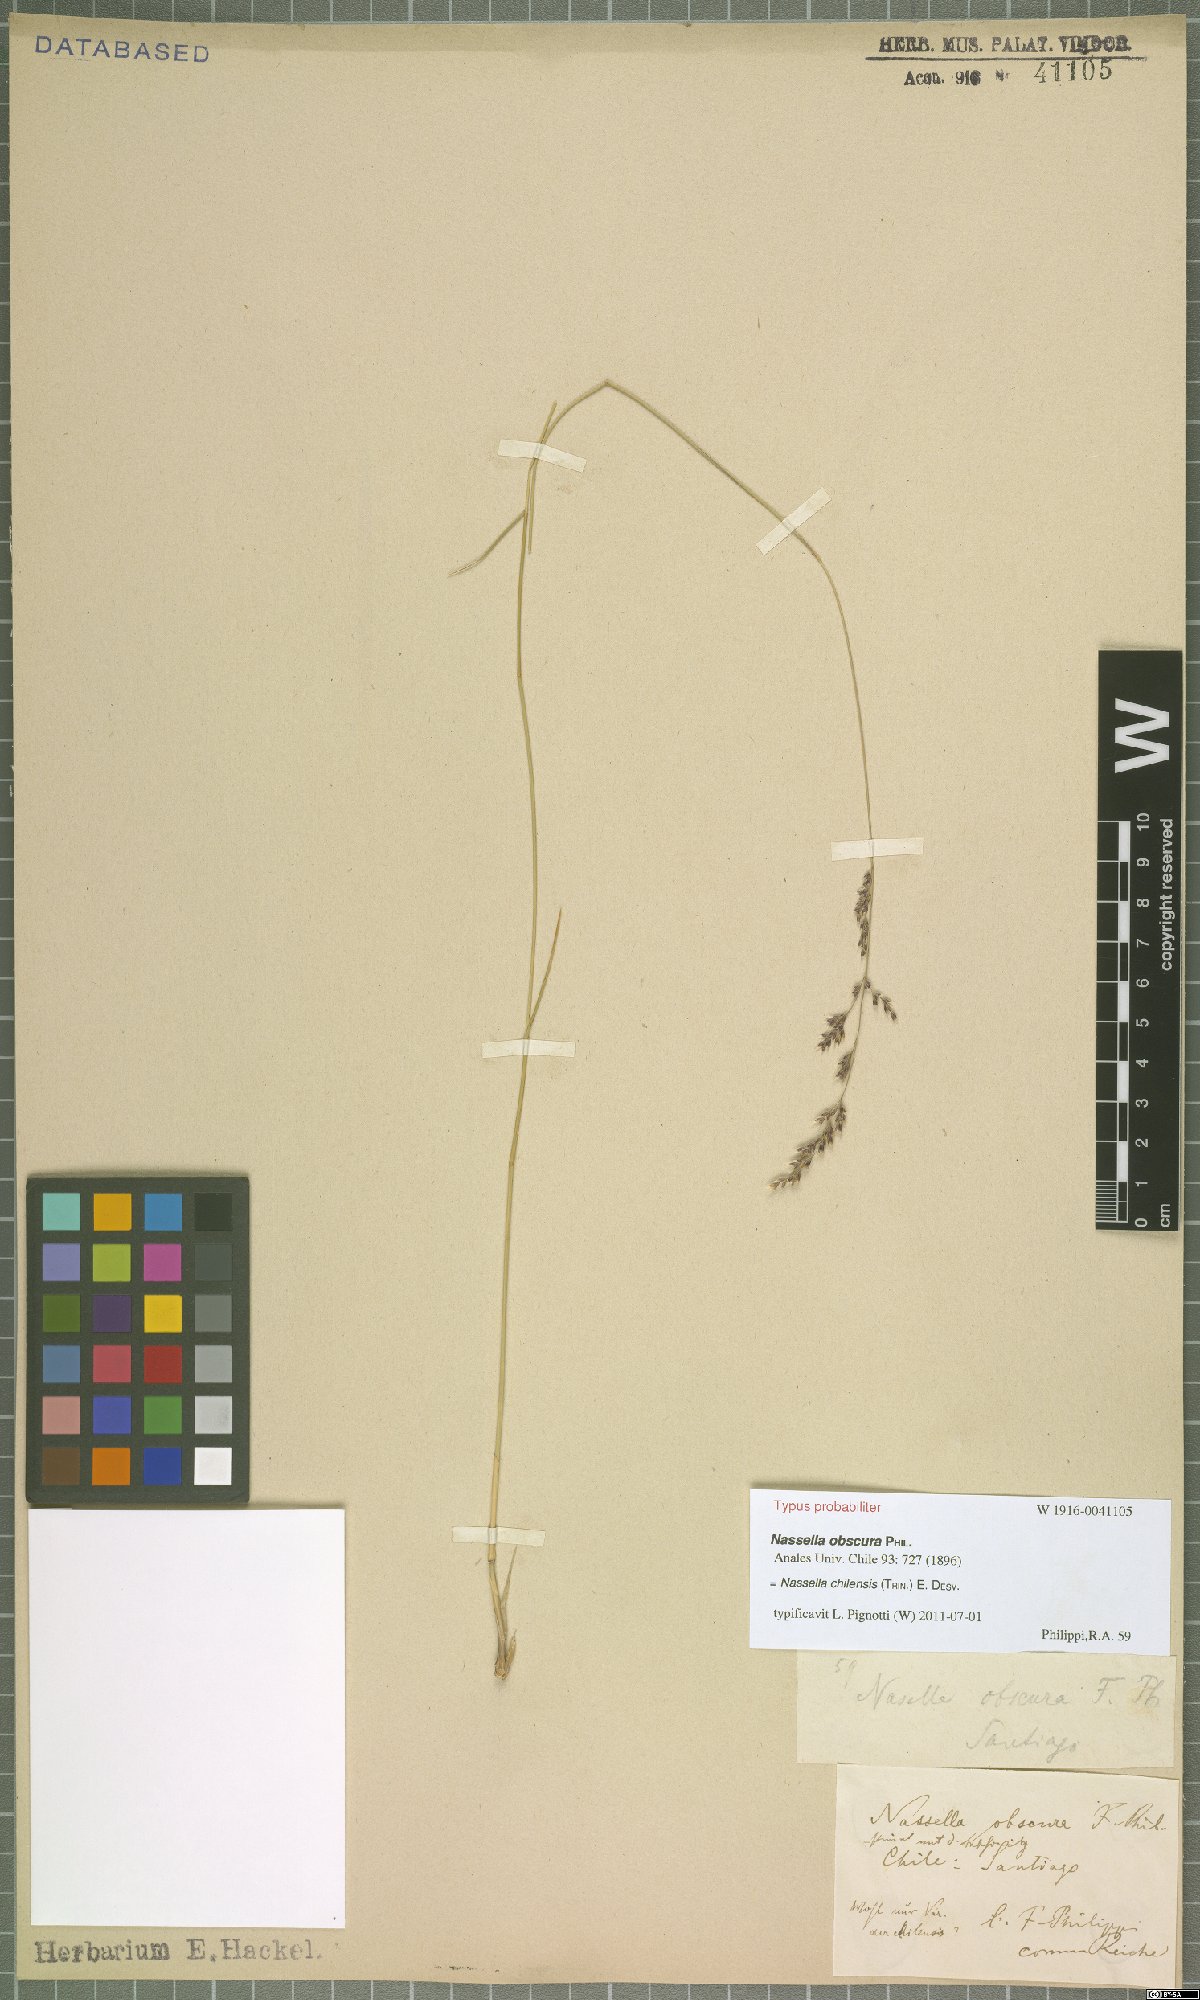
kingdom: Plantae
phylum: Tracheophyta
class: Liliopsida
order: Poales
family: Poaceae
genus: Nassella
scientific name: Nassella chilensis
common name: Chilean needlegrass
